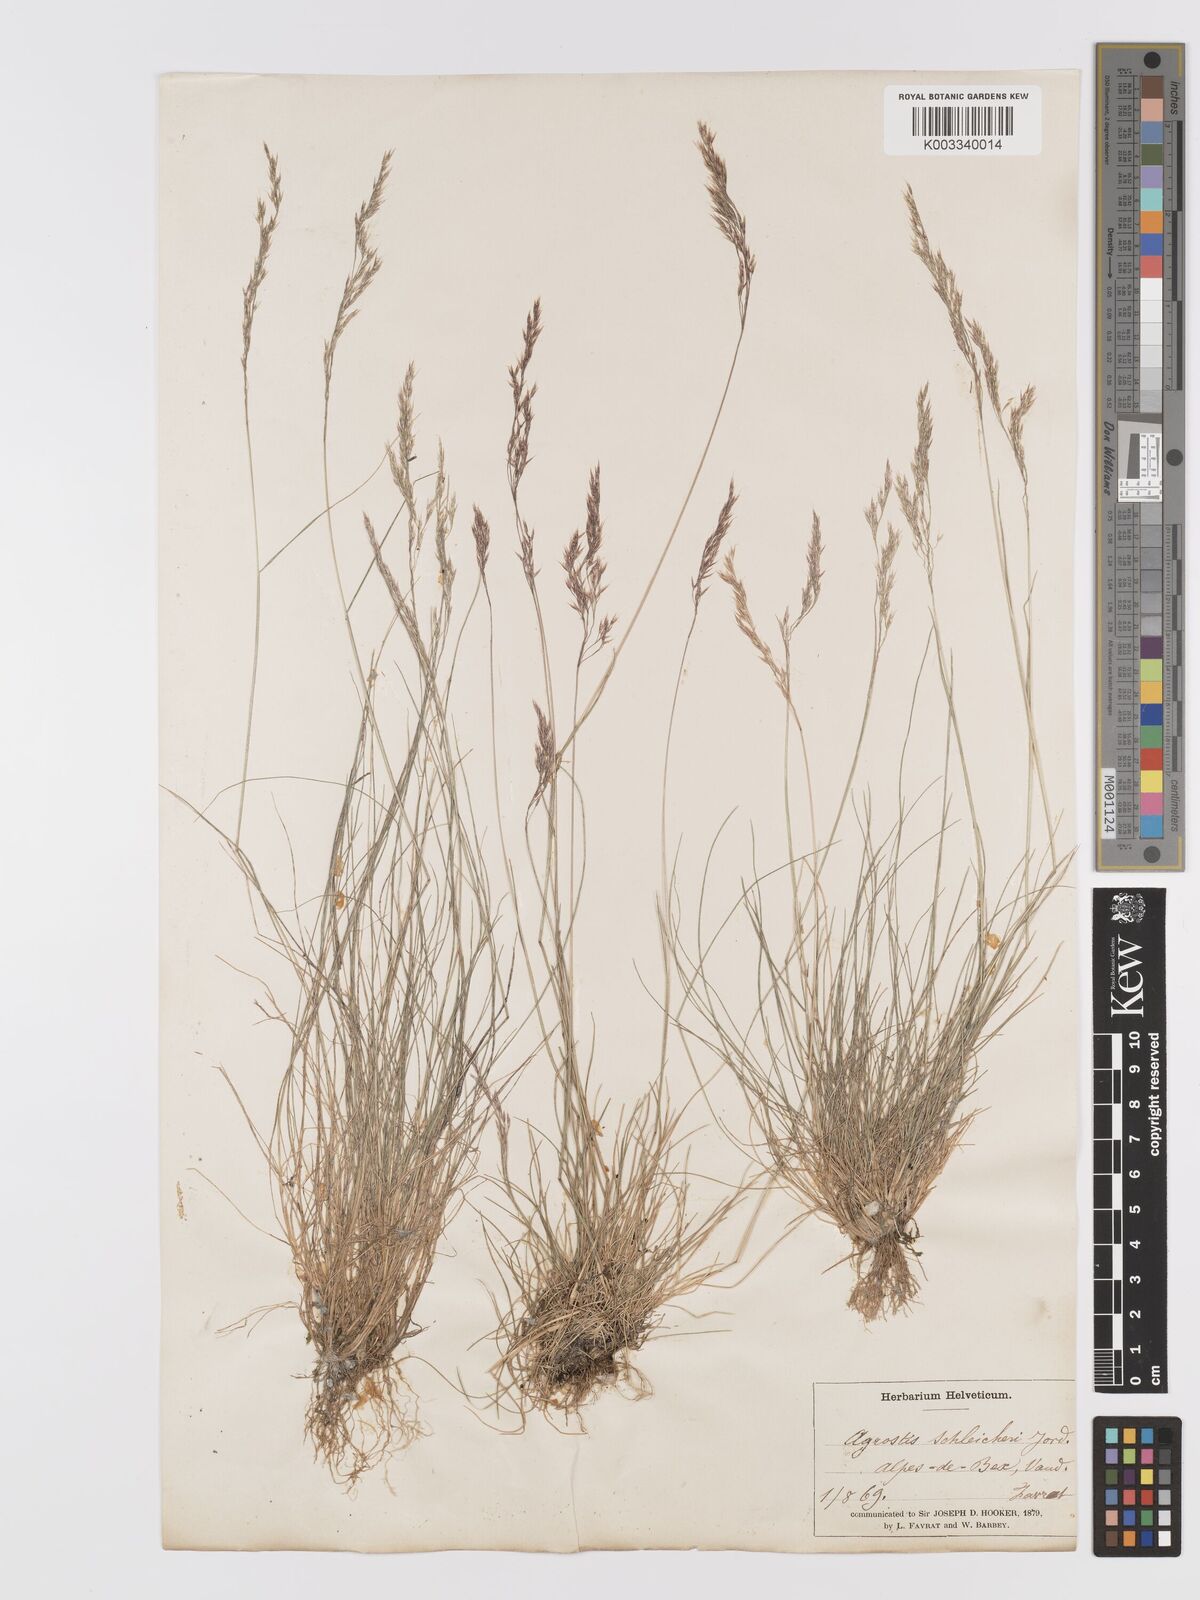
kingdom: Plantae
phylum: Tracheophyta
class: Liliopsida
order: Poales
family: Poaceae
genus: Alpagrostis
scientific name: Alpagrostis schleicheri
